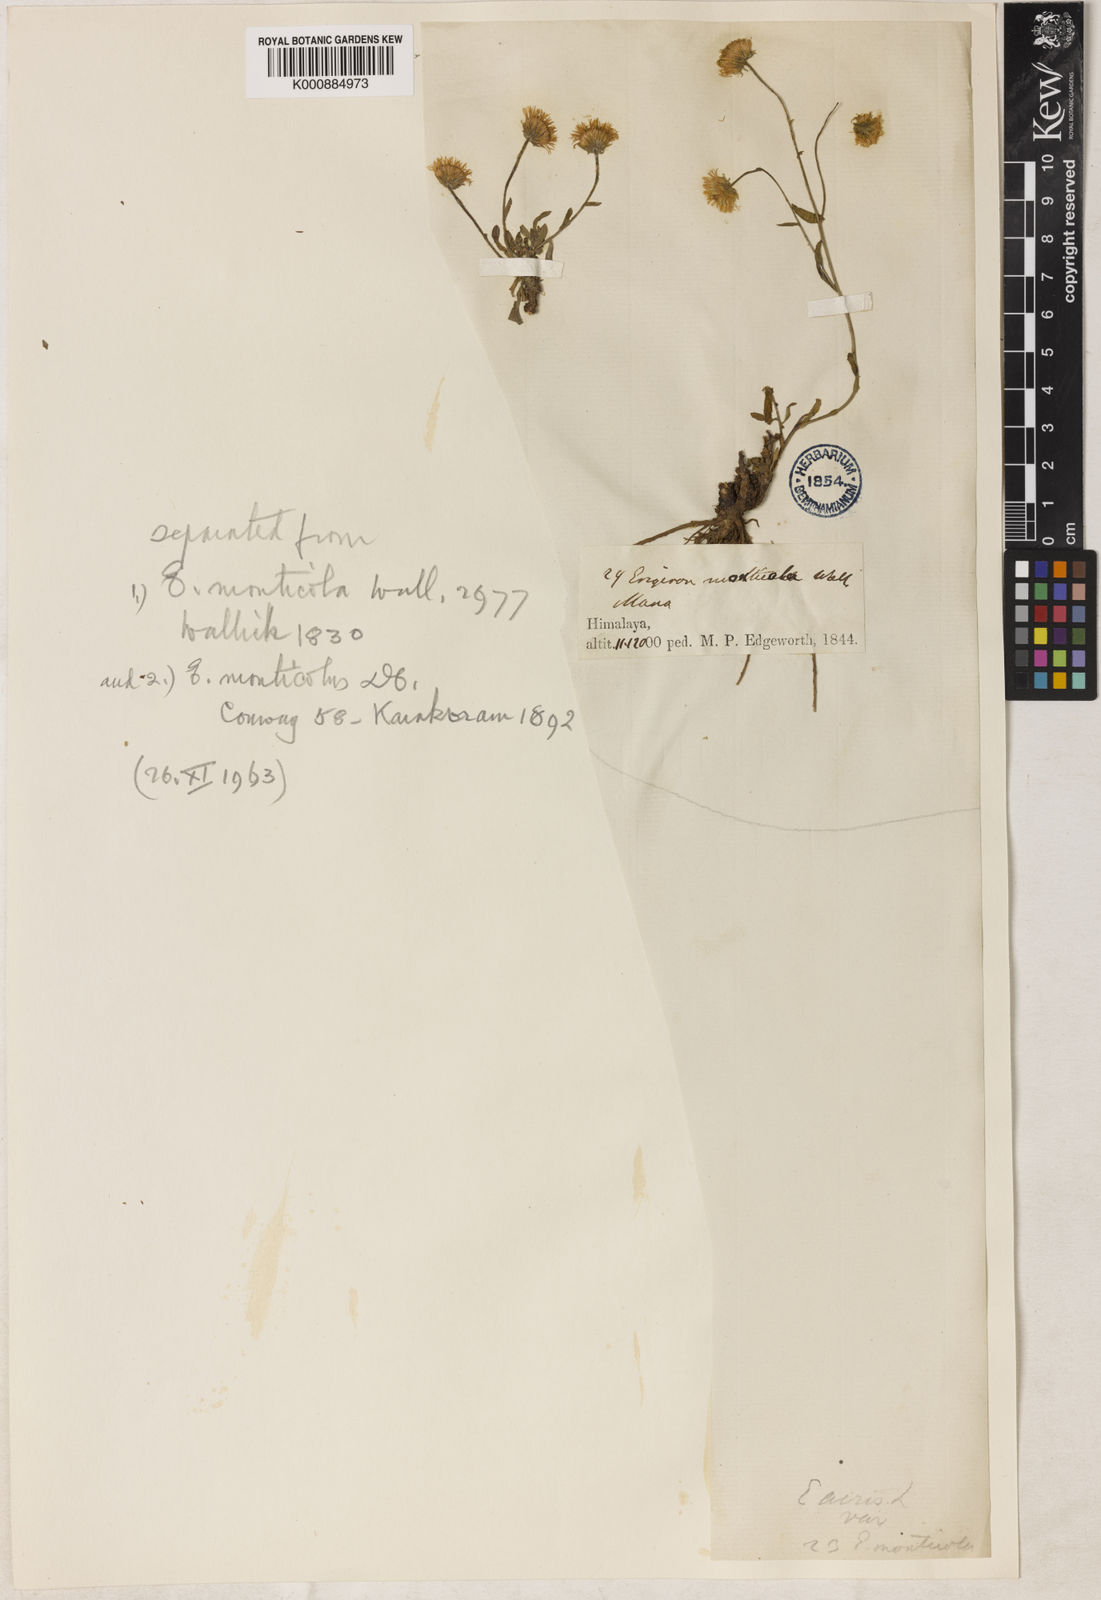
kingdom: Plantae
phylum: Tracheophyta
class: Magnoliopsida
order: Asterales
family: Asteraceae
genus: Erigeron
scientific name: Erigeron monticolus
